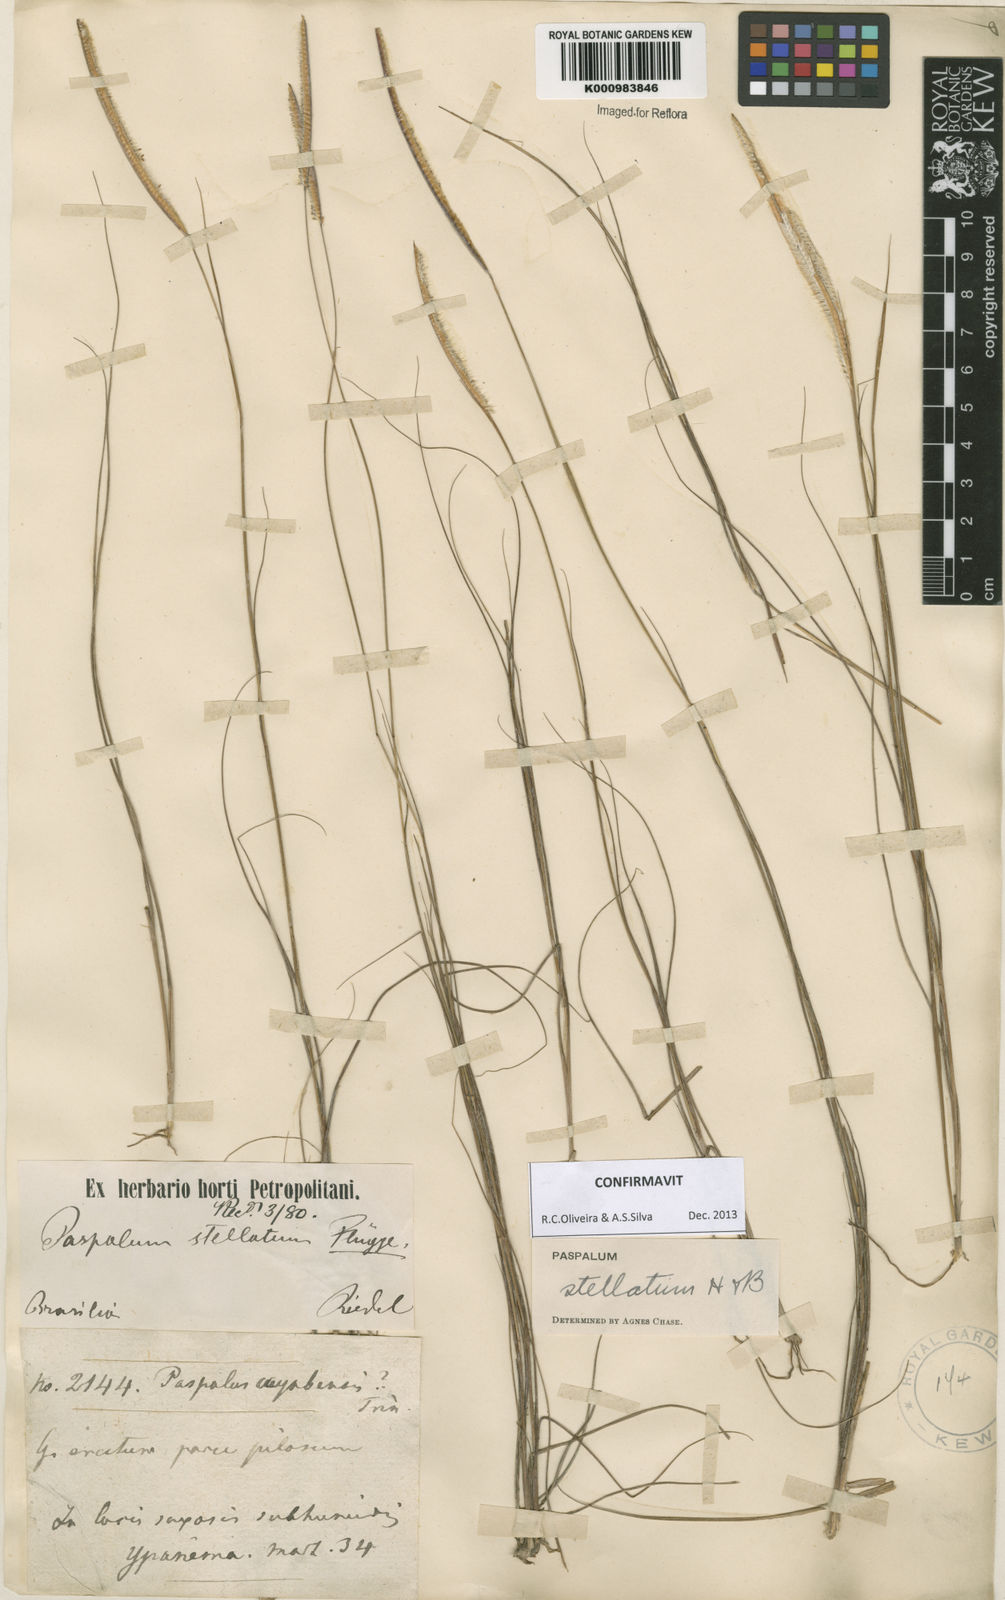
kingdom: Plantae
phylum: Tracheophyta
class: Liliopsida
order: Poales
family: Poaceae
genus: Paspalum
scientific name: Paspalum
